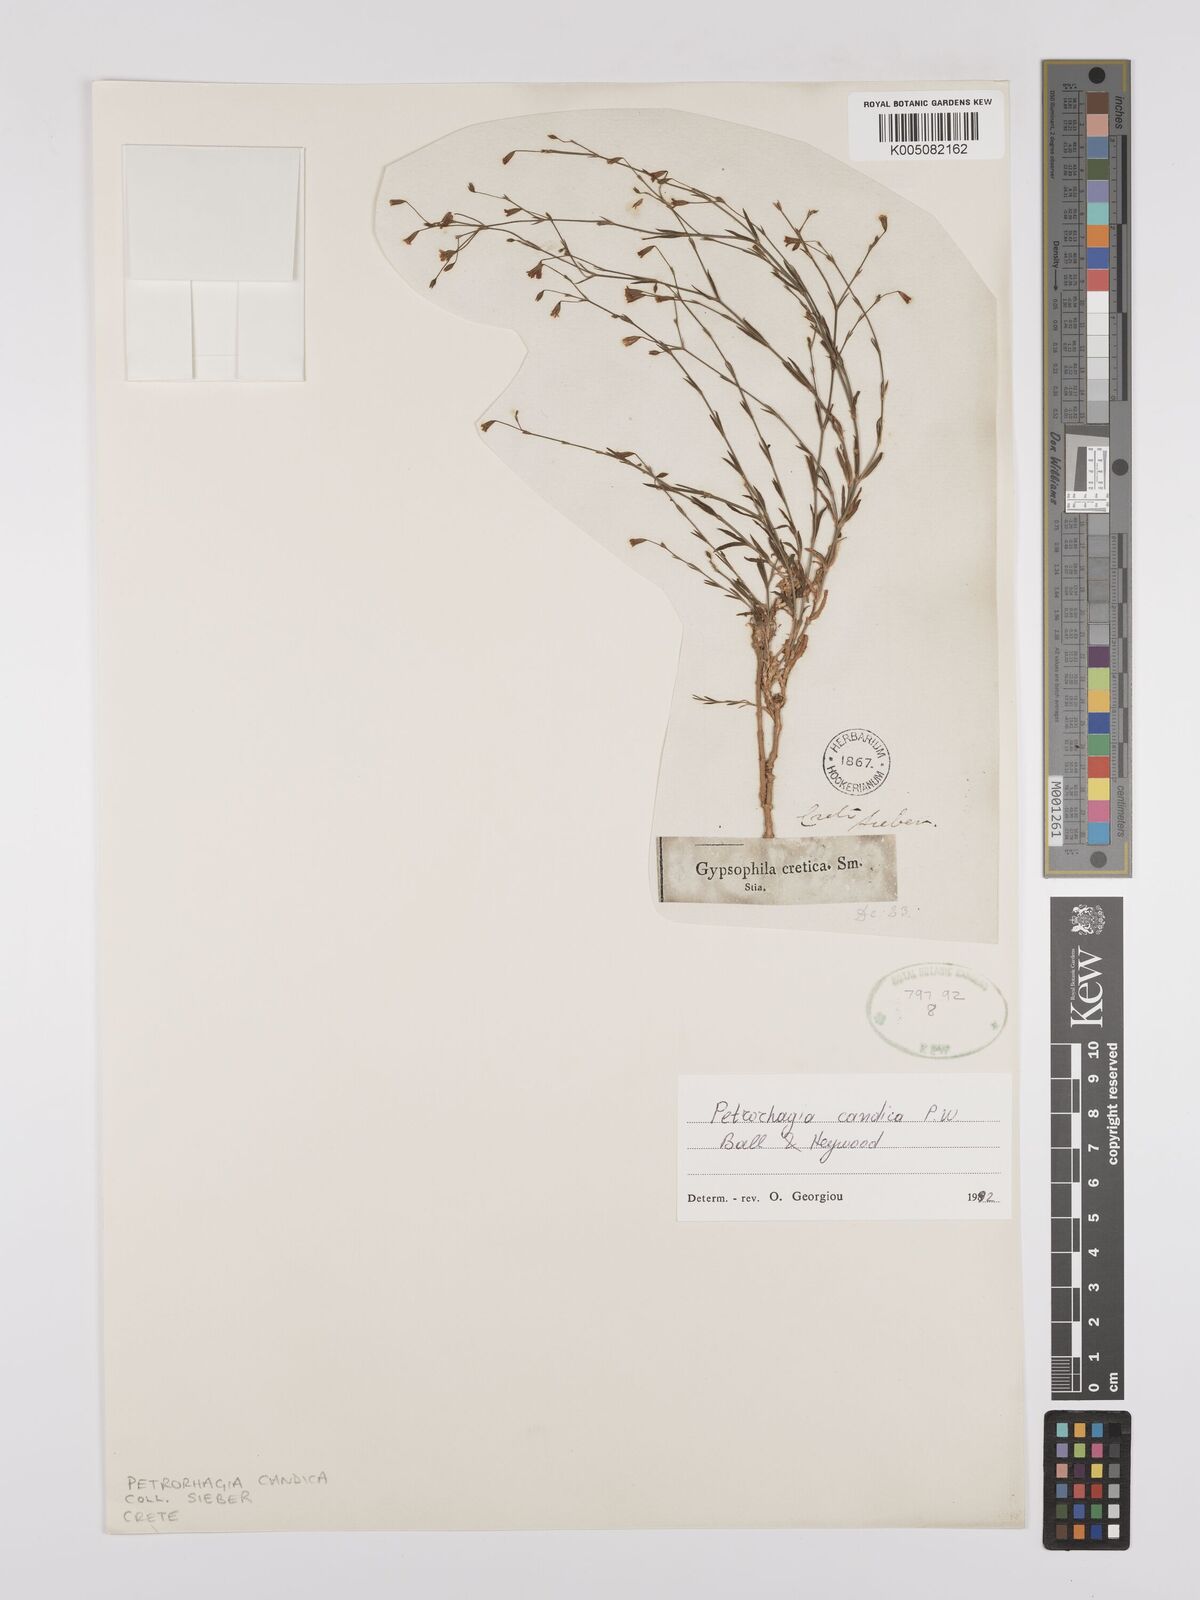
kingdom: Plantae
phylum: Tracheophyta
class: Magnoliopsida
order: Caryophyllales
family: Caryophyllaceae
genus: Petrorhagia
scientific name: Petrorhagia cretica
